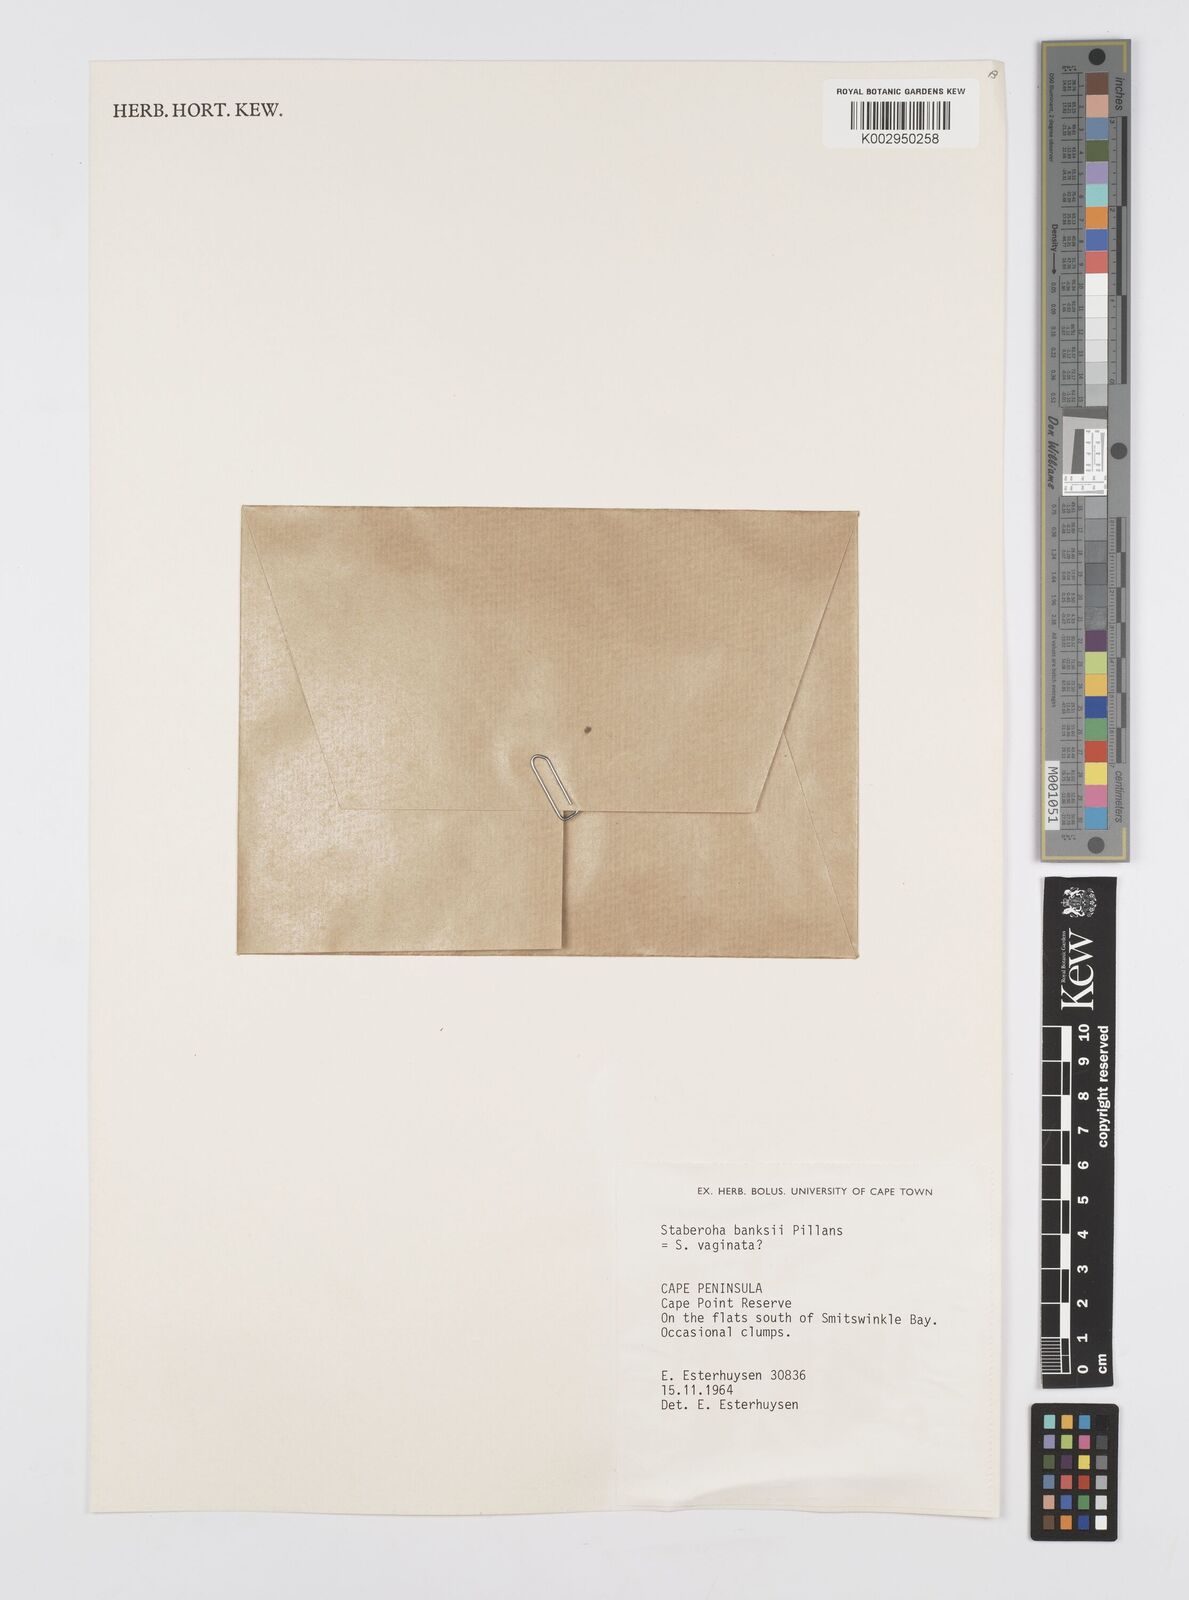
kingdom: Plantae
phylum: Tracheophyta
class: Liliopsida
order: Poales
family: Restionaceae
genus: Staberoha
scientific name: Staberoha banksii
